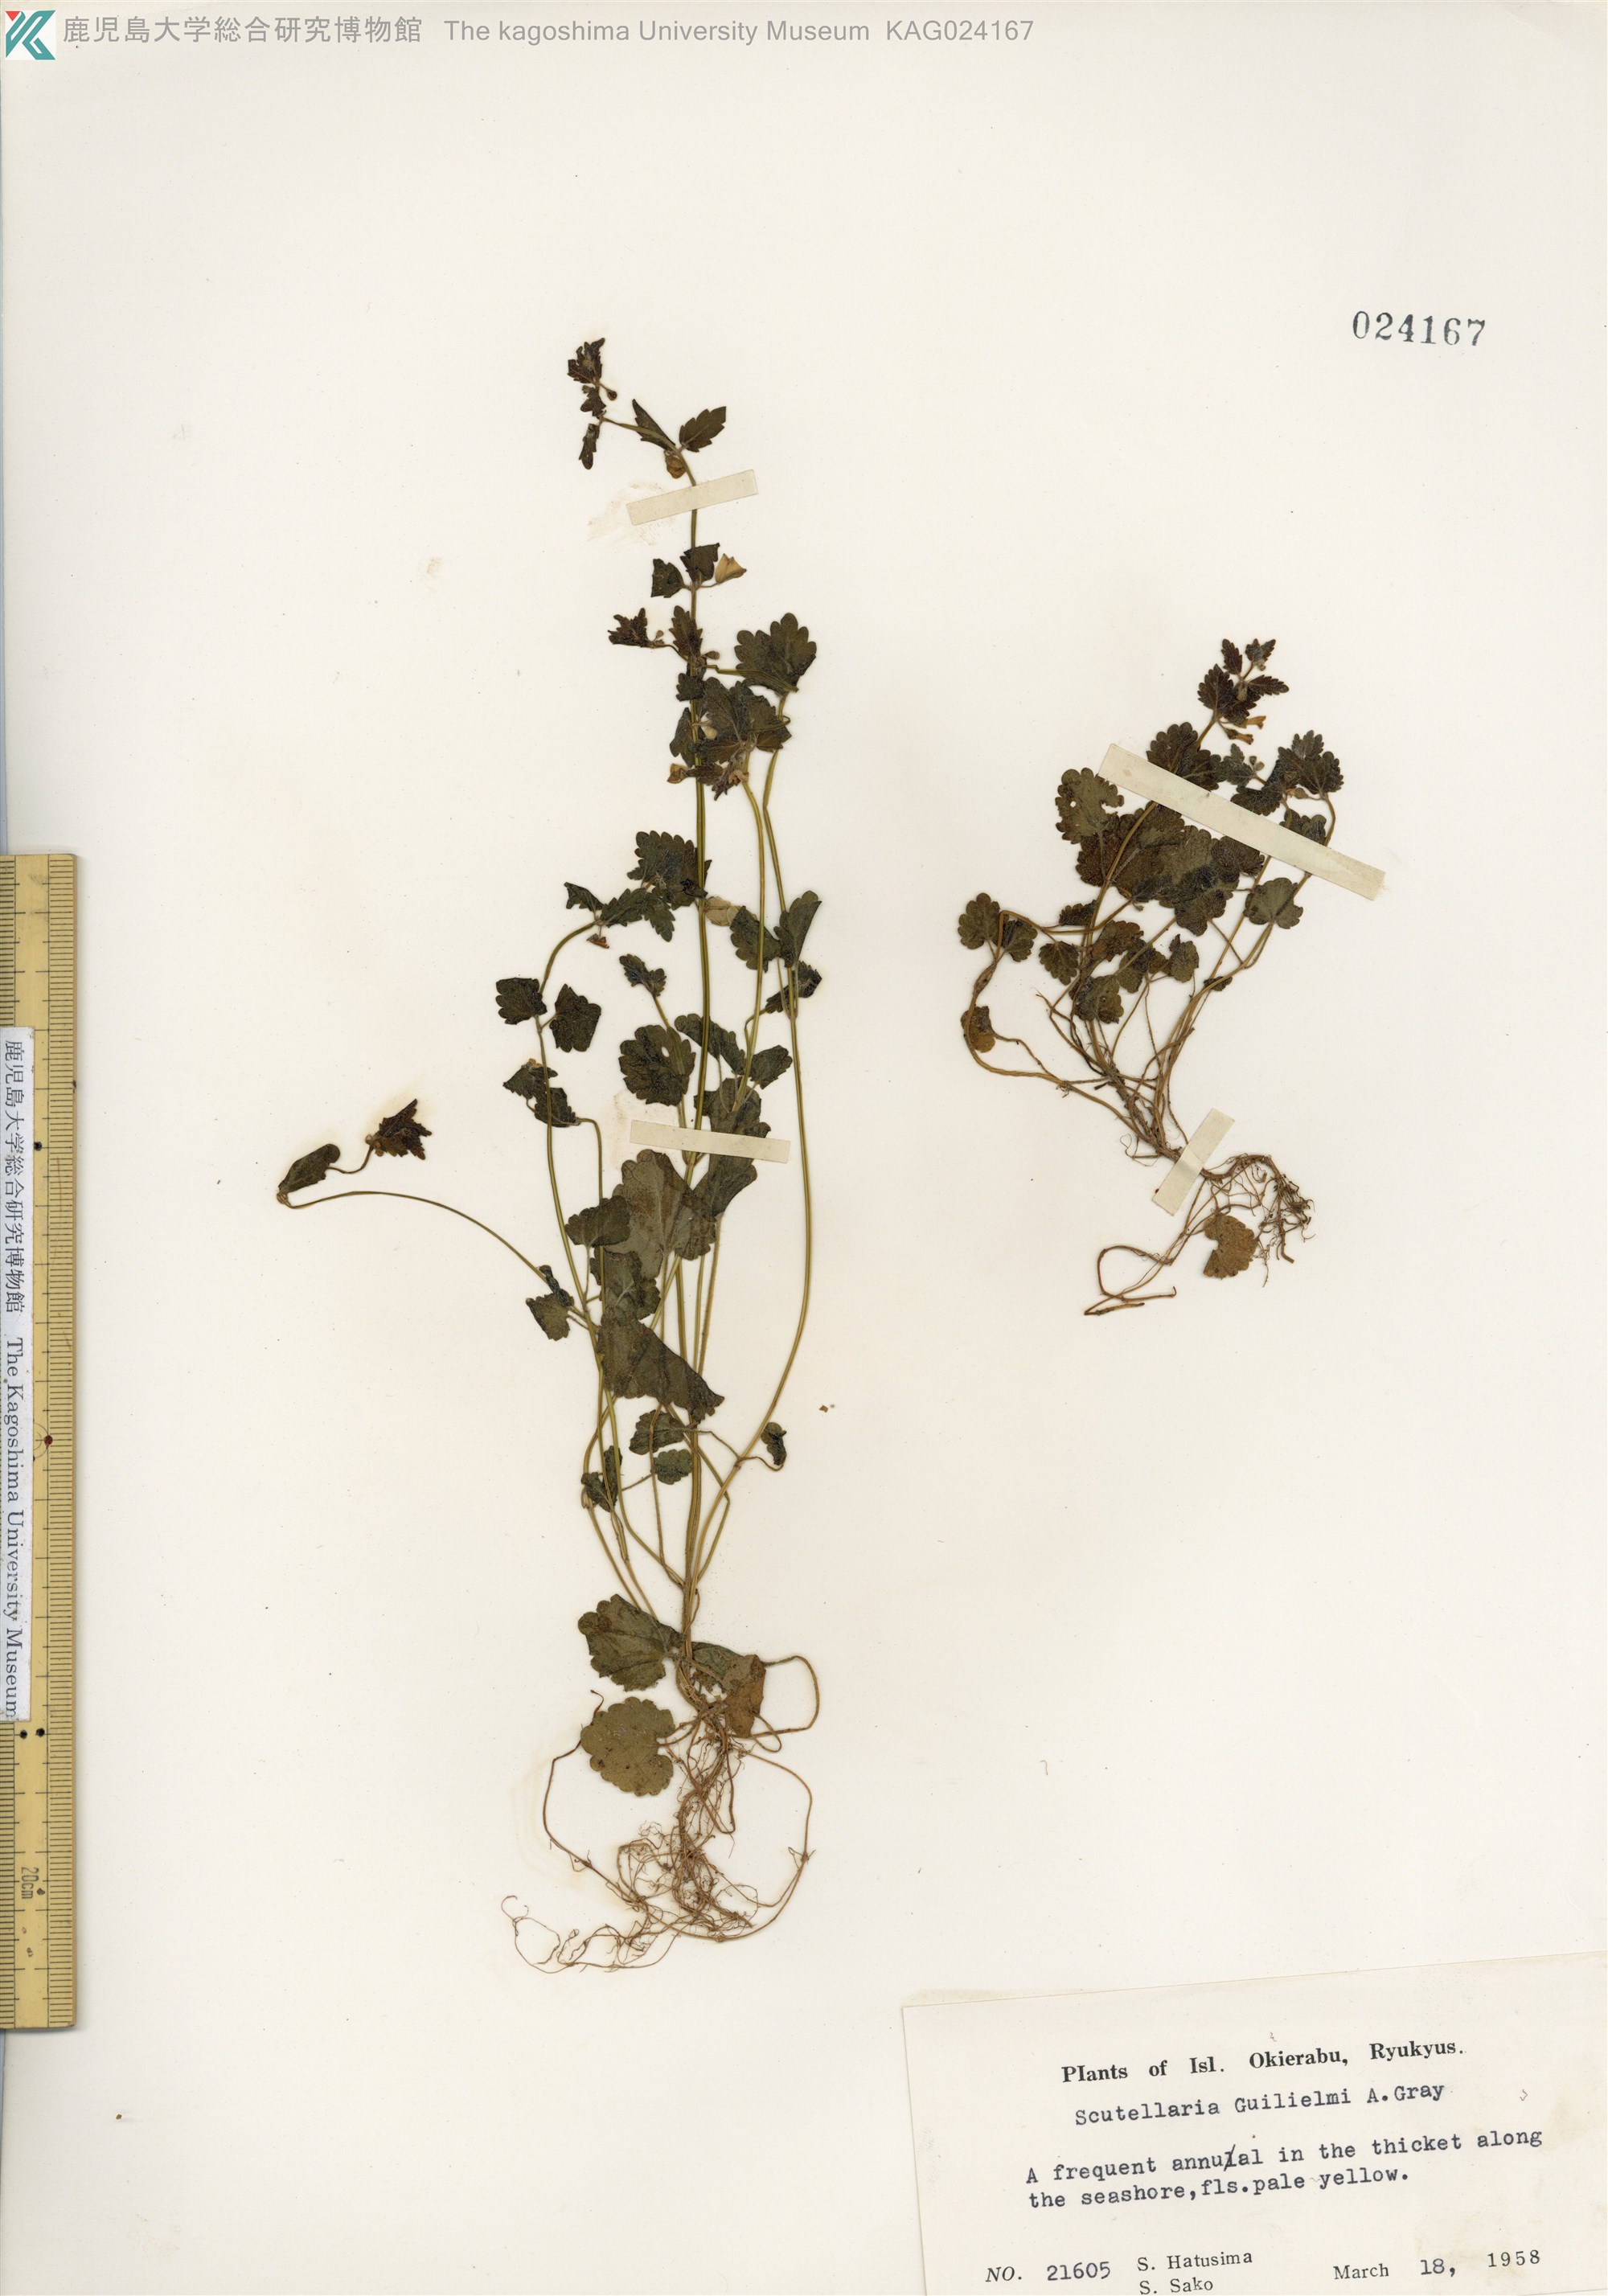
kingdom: Plantae
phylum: Tracheophyta
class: Magnoliopsida
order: Lamiales
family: Lamiaceae
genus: Scutellaria
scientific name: Scutellaria guilielmi
